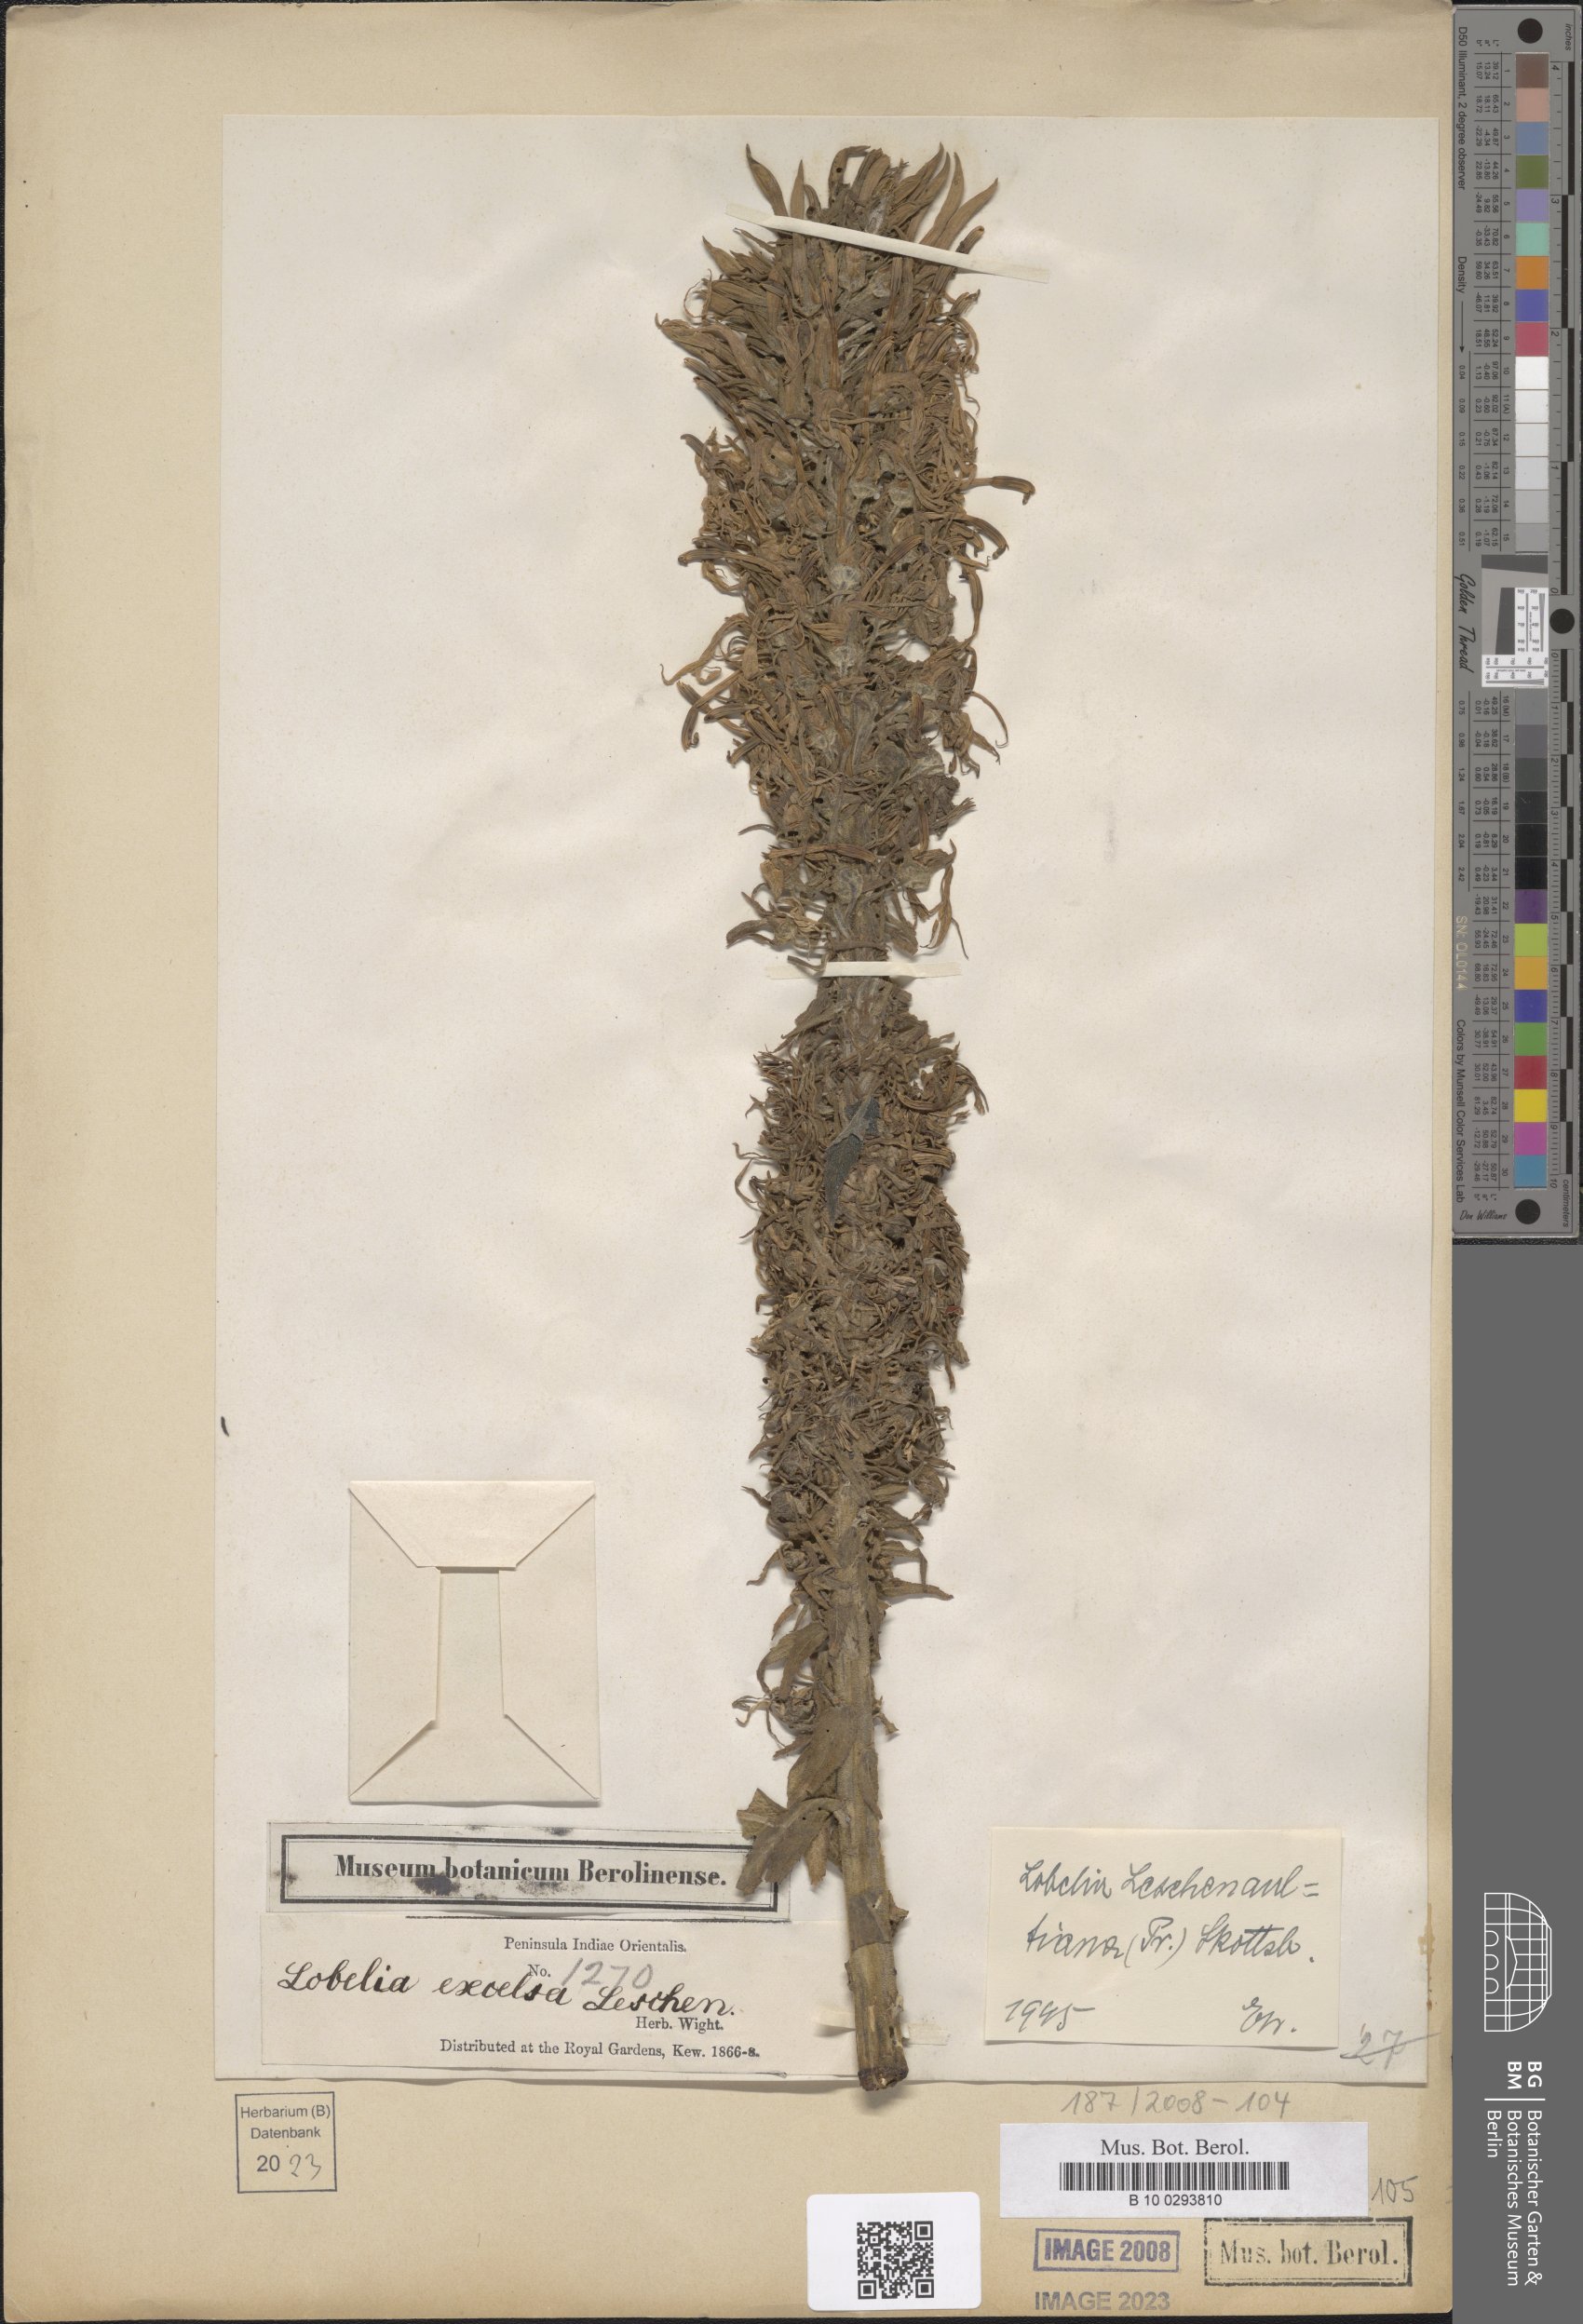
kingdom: Plantae
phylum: Tracheophyta
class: Magnoliopsida
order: Asterales
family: Campanulaceae
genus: Lobelia
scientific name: Lobelia leschenaultiana
